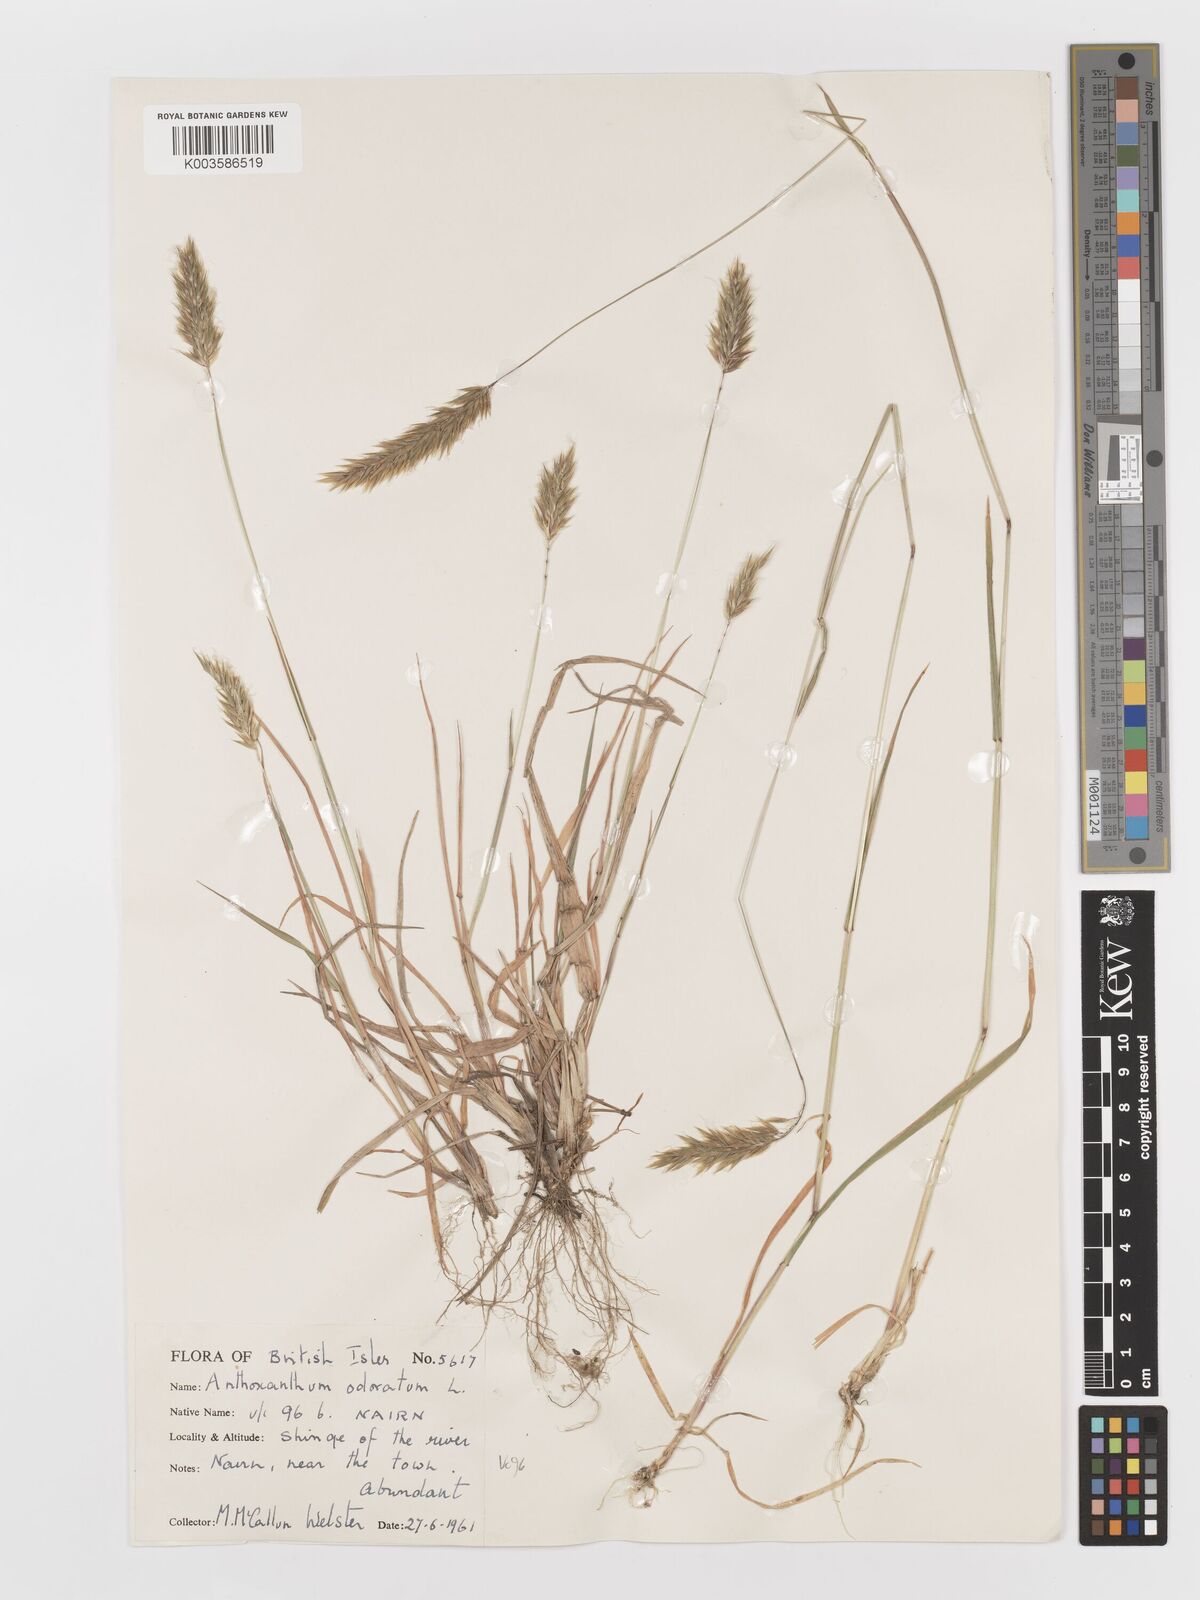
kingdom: Plantae
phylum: Tracheophyta
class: Liliopsida
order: Poales
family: Poaceae
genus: Anthoxanthum
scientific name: Anthoxanthum odoratum
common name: Sweet vernalgrass
